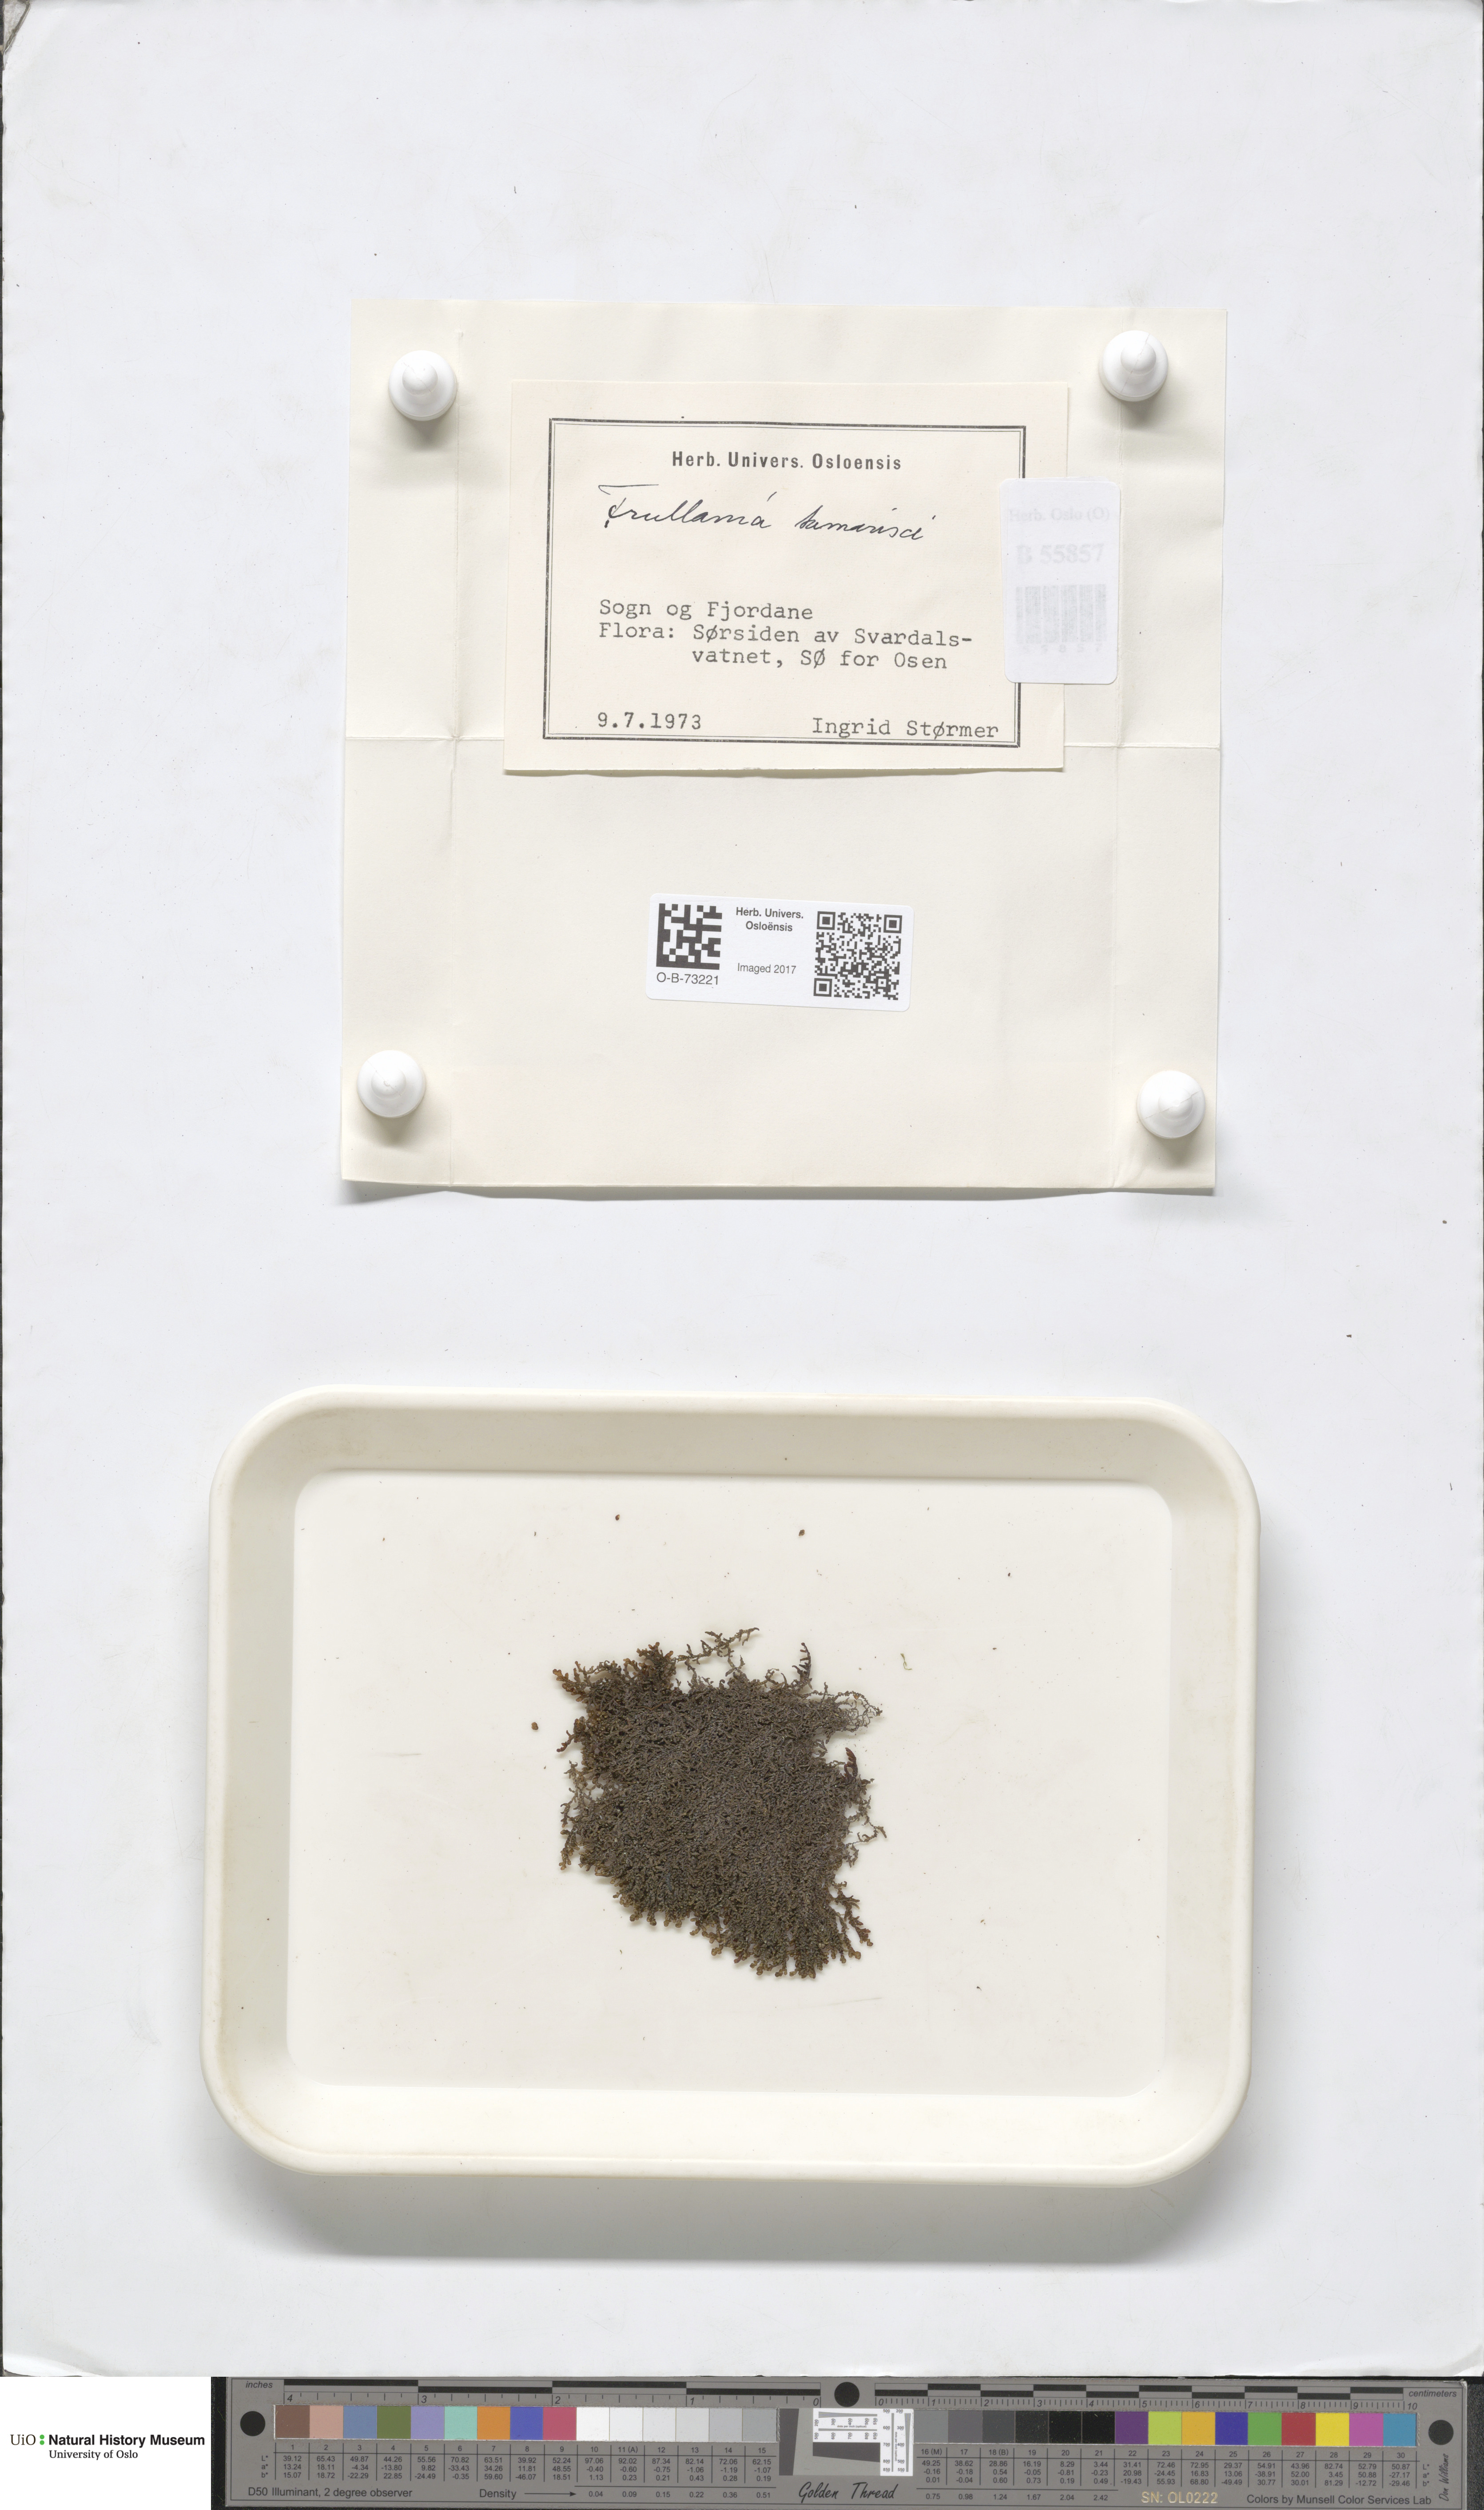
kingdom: Plantae
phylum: Marchantiophyta
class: Jungermanniopsida
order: Porellales
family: Frullaniaceae
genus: Frullania
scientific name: Frullania tamarisci
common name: Tamarisk scalewort
